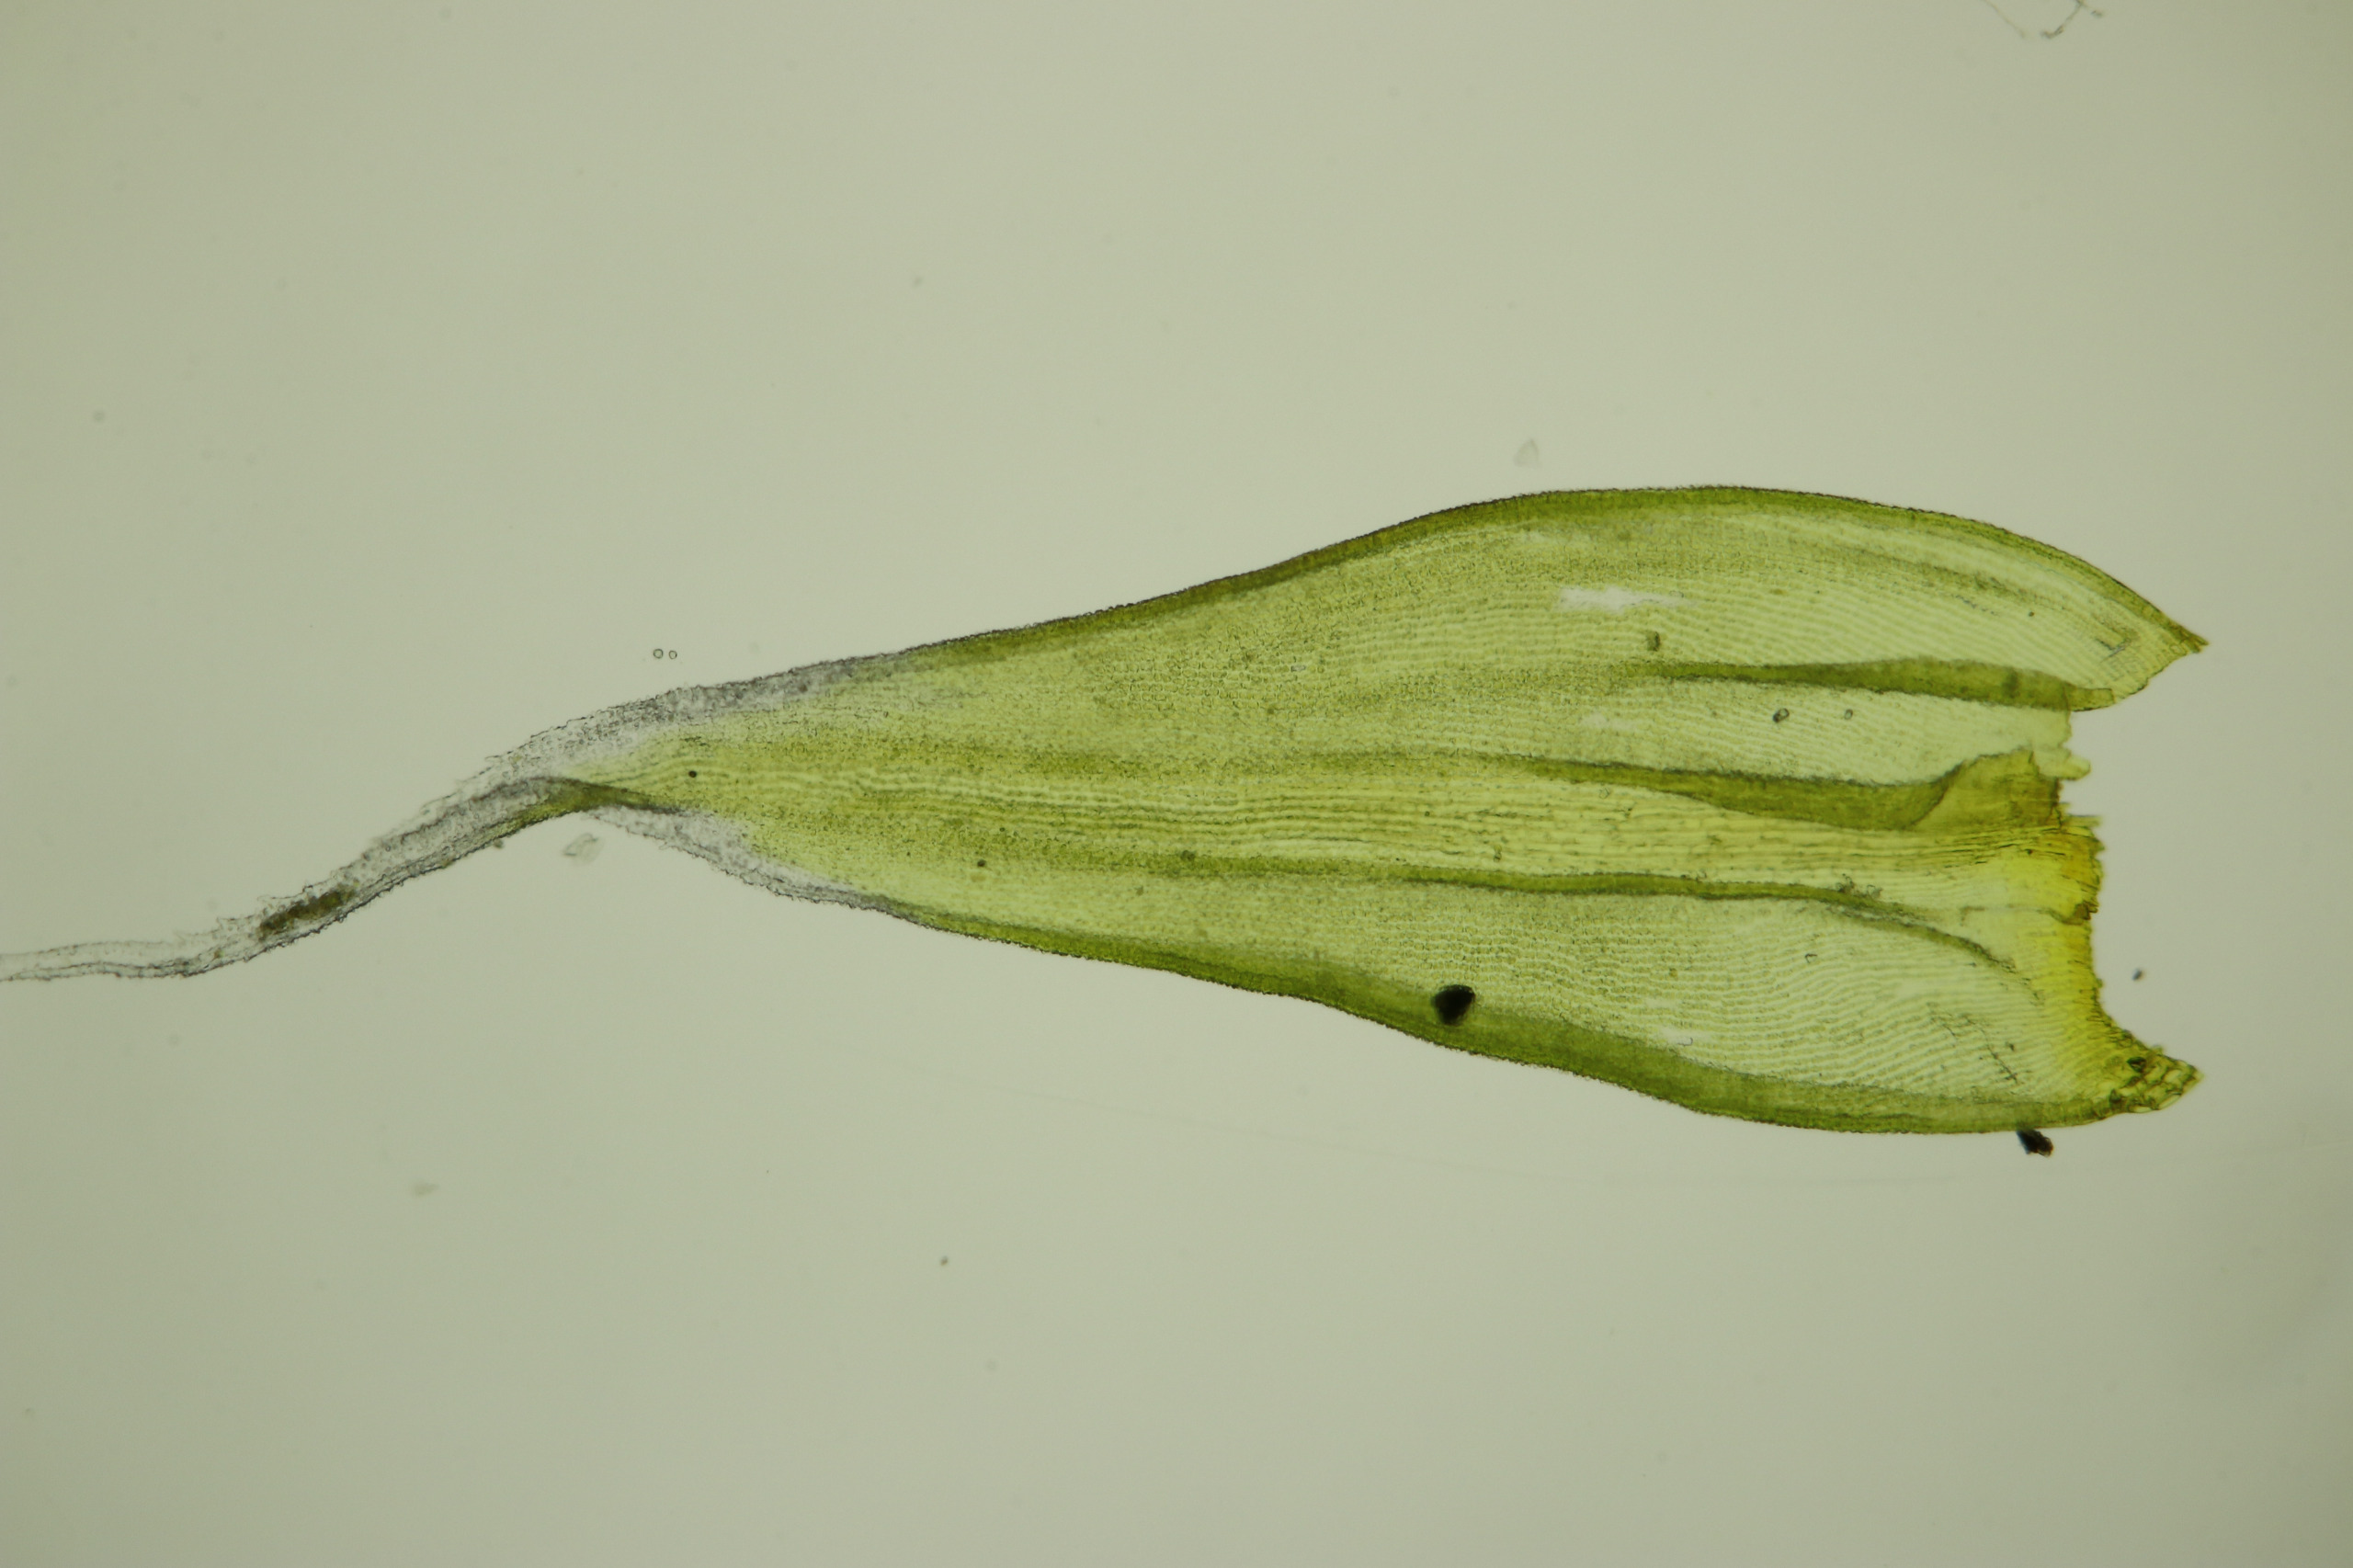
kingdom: Plantae
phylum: Bryophyta
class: Bryopsida
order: Grimmiales
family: Grimmiaceae
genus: Niphotrichum
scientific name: Niphotrichum elongatum
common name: Lang børstemos
